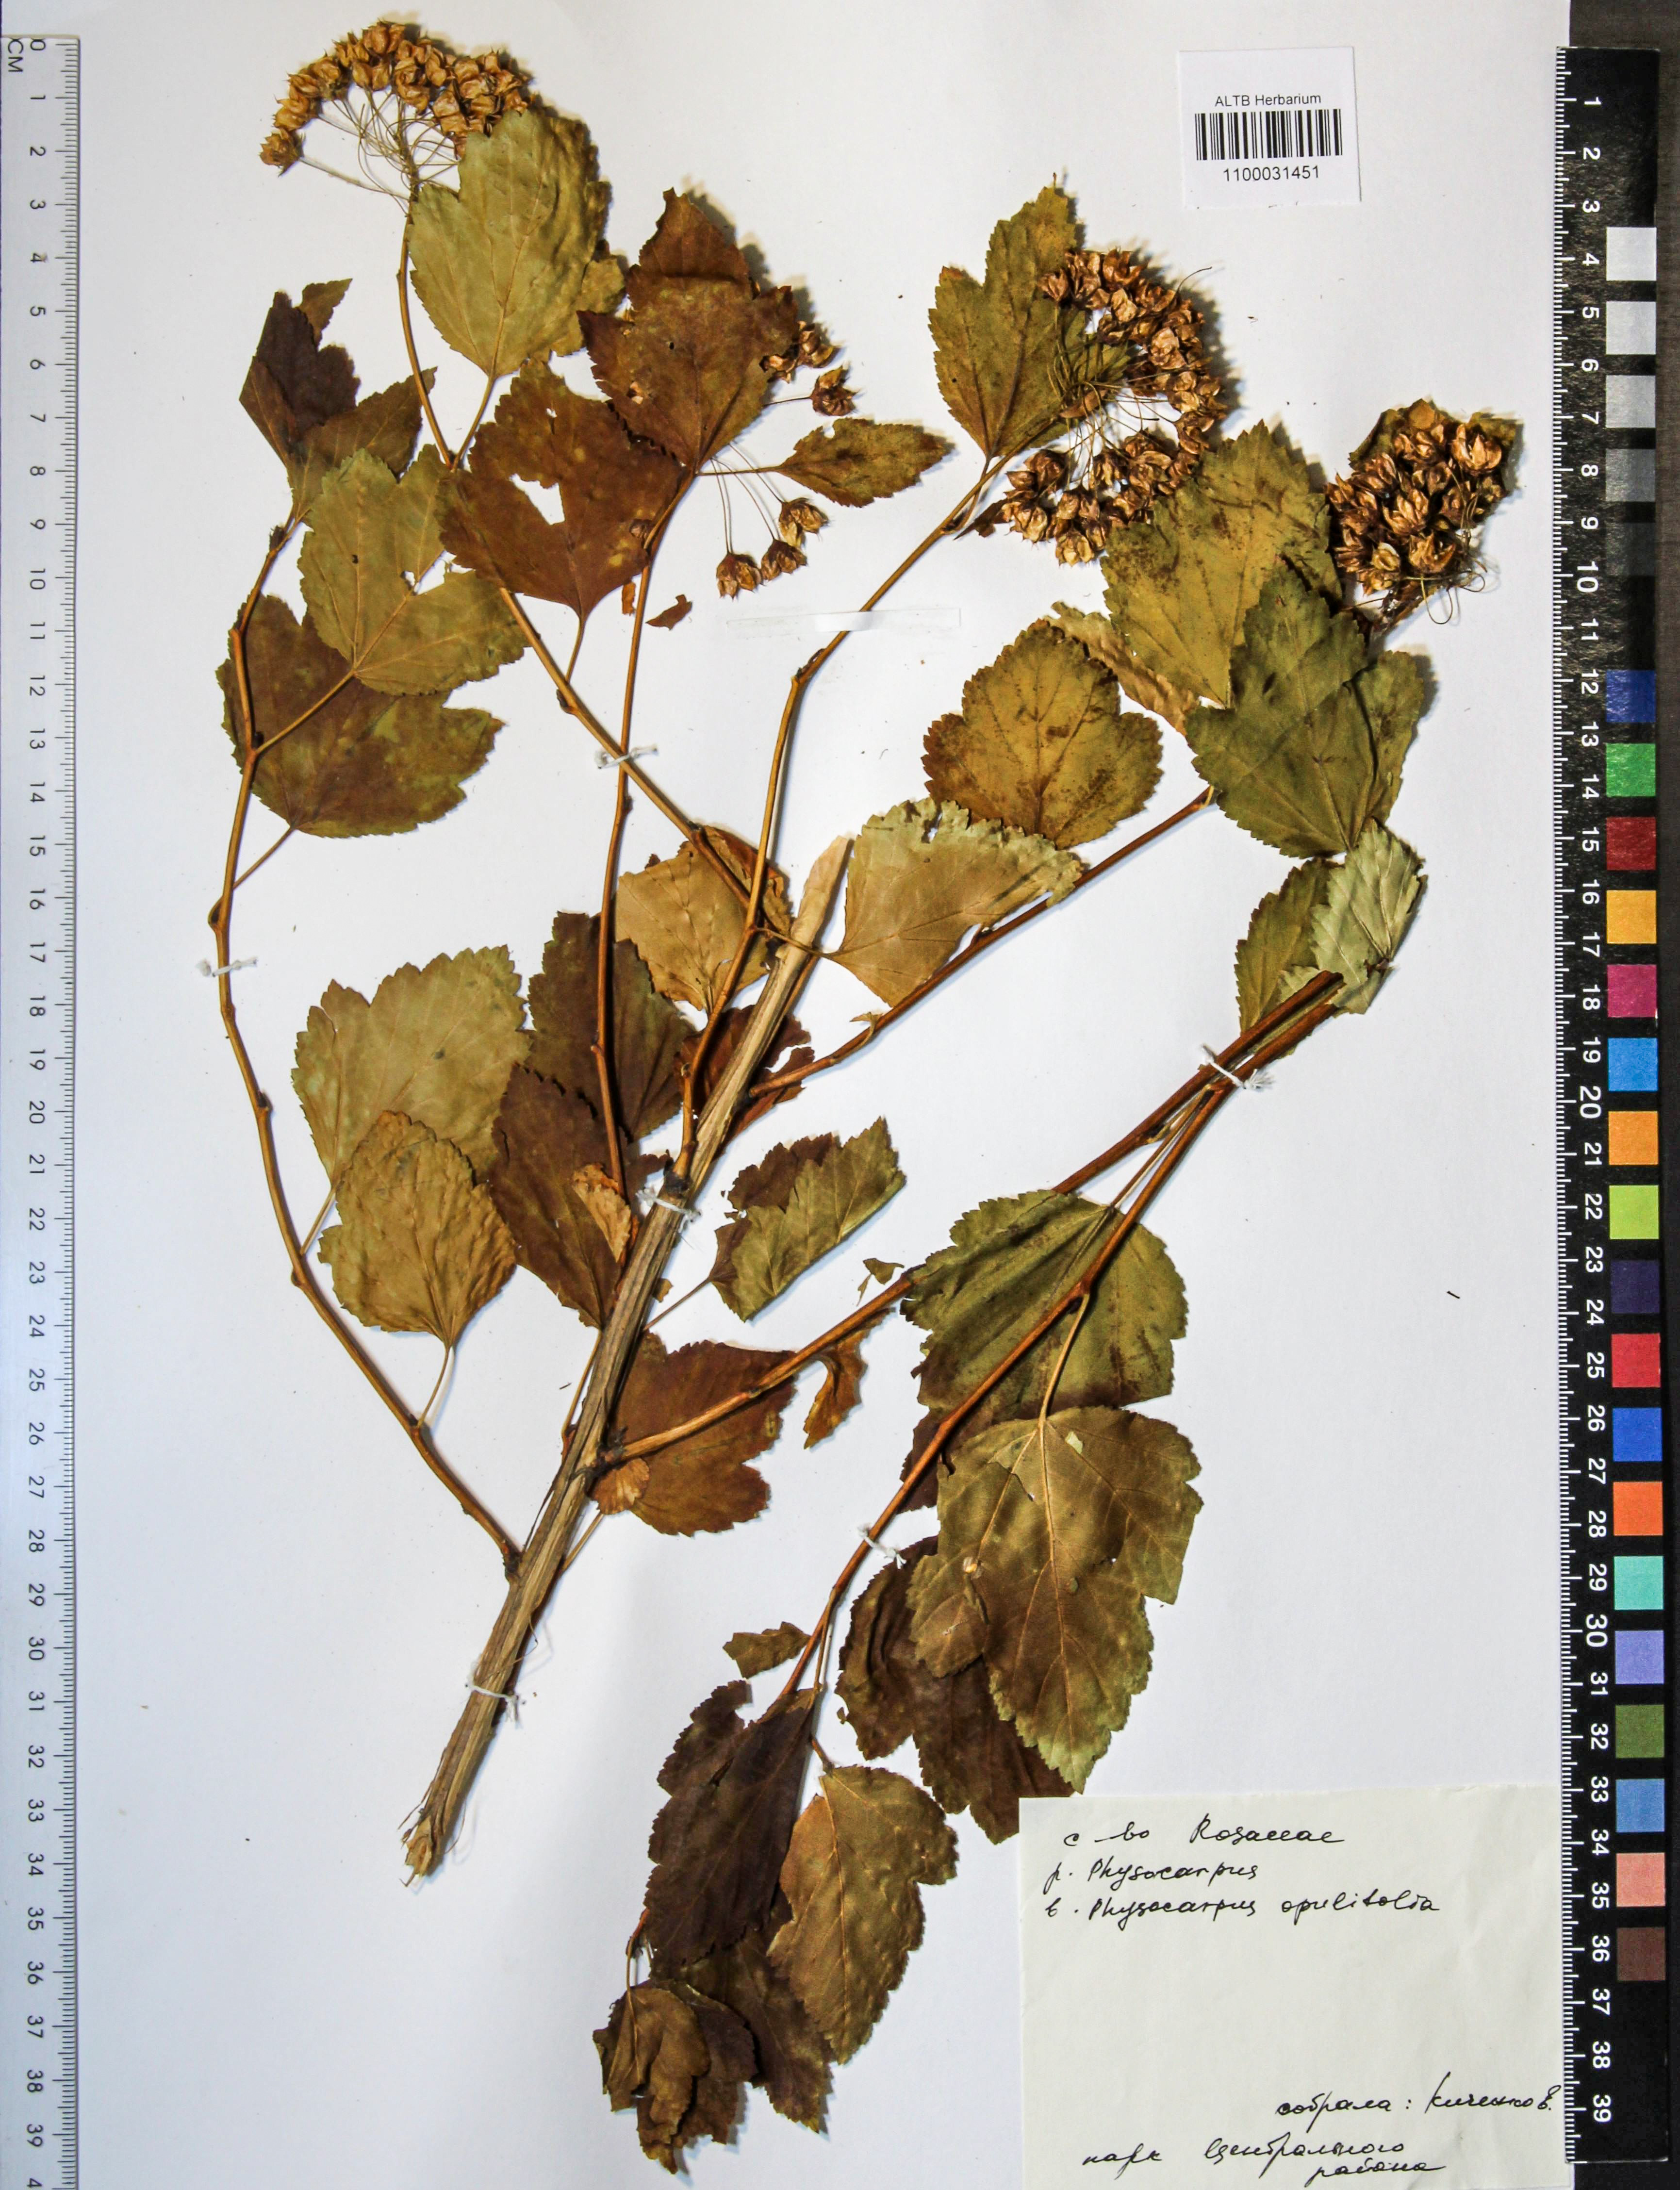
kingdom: Plantae
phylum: Tracheophyta
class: Magnoliopsida
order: Rosales
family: Rosaceae
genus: Physocarpus
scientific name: Physocarpus opulifolius
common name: Ninebark
